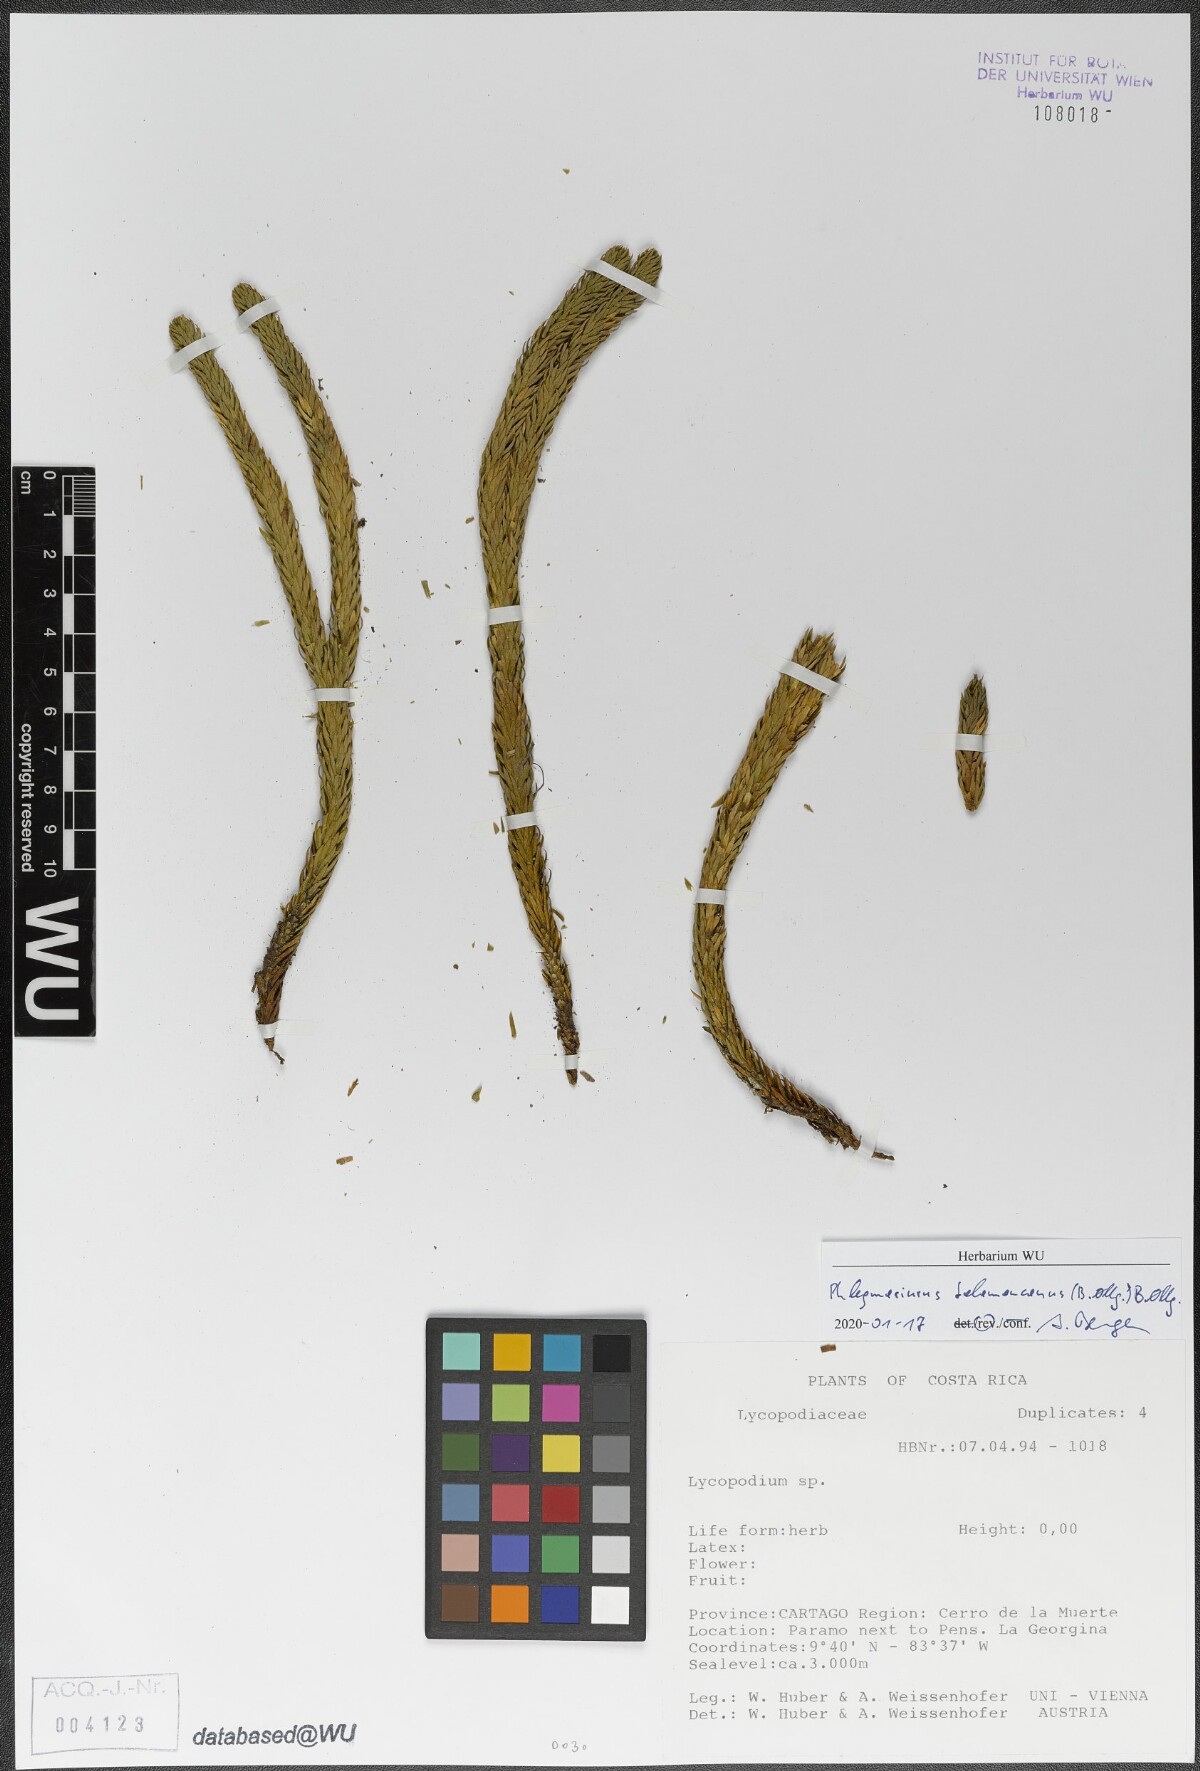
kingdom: Plantae
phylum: Tracheophyta
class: Lycopodiopsida
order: Lycopodiales
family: Lycopodiaceae
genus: Phlegmariurus
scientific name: Phlegmariurus talamancanus
